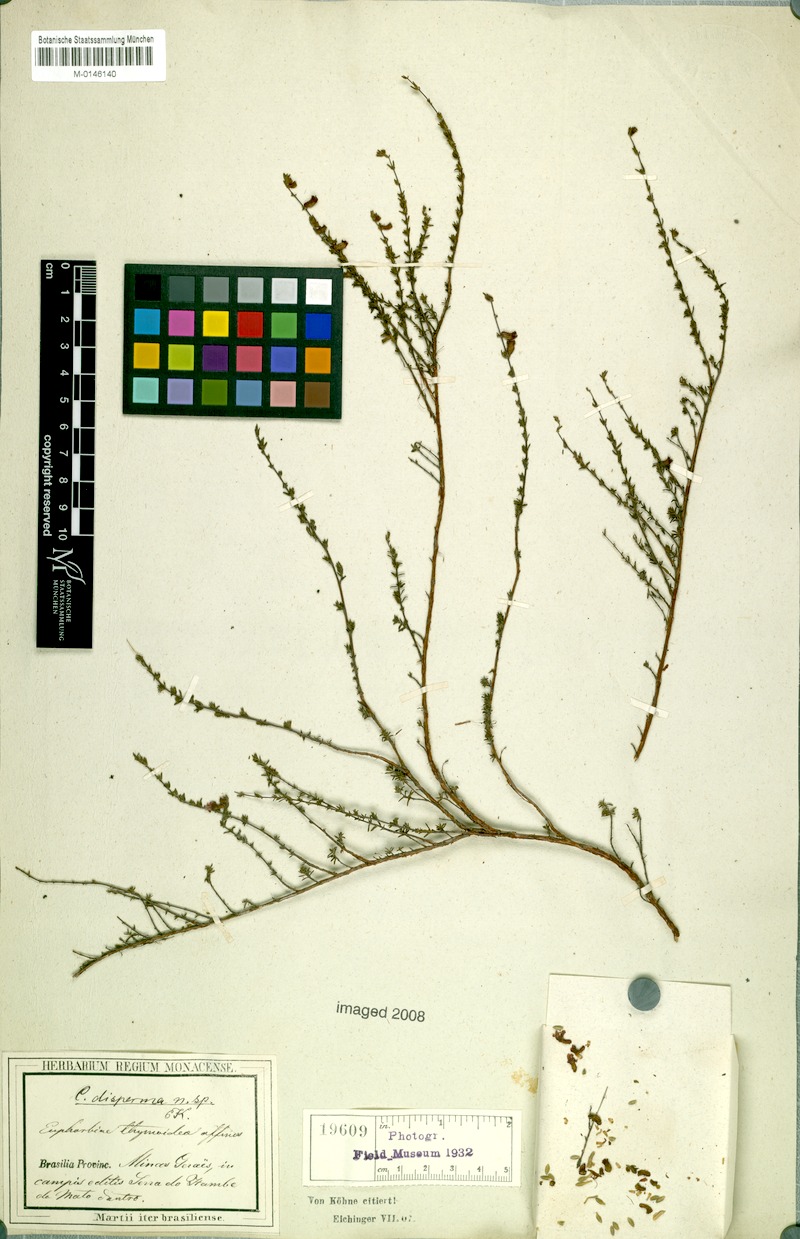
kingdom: Plantae
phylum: Tracheophyta
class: Magnoliopsida
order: Myrtales
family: Lythraceae
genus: Cuphea
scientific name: Cuphea disperma
